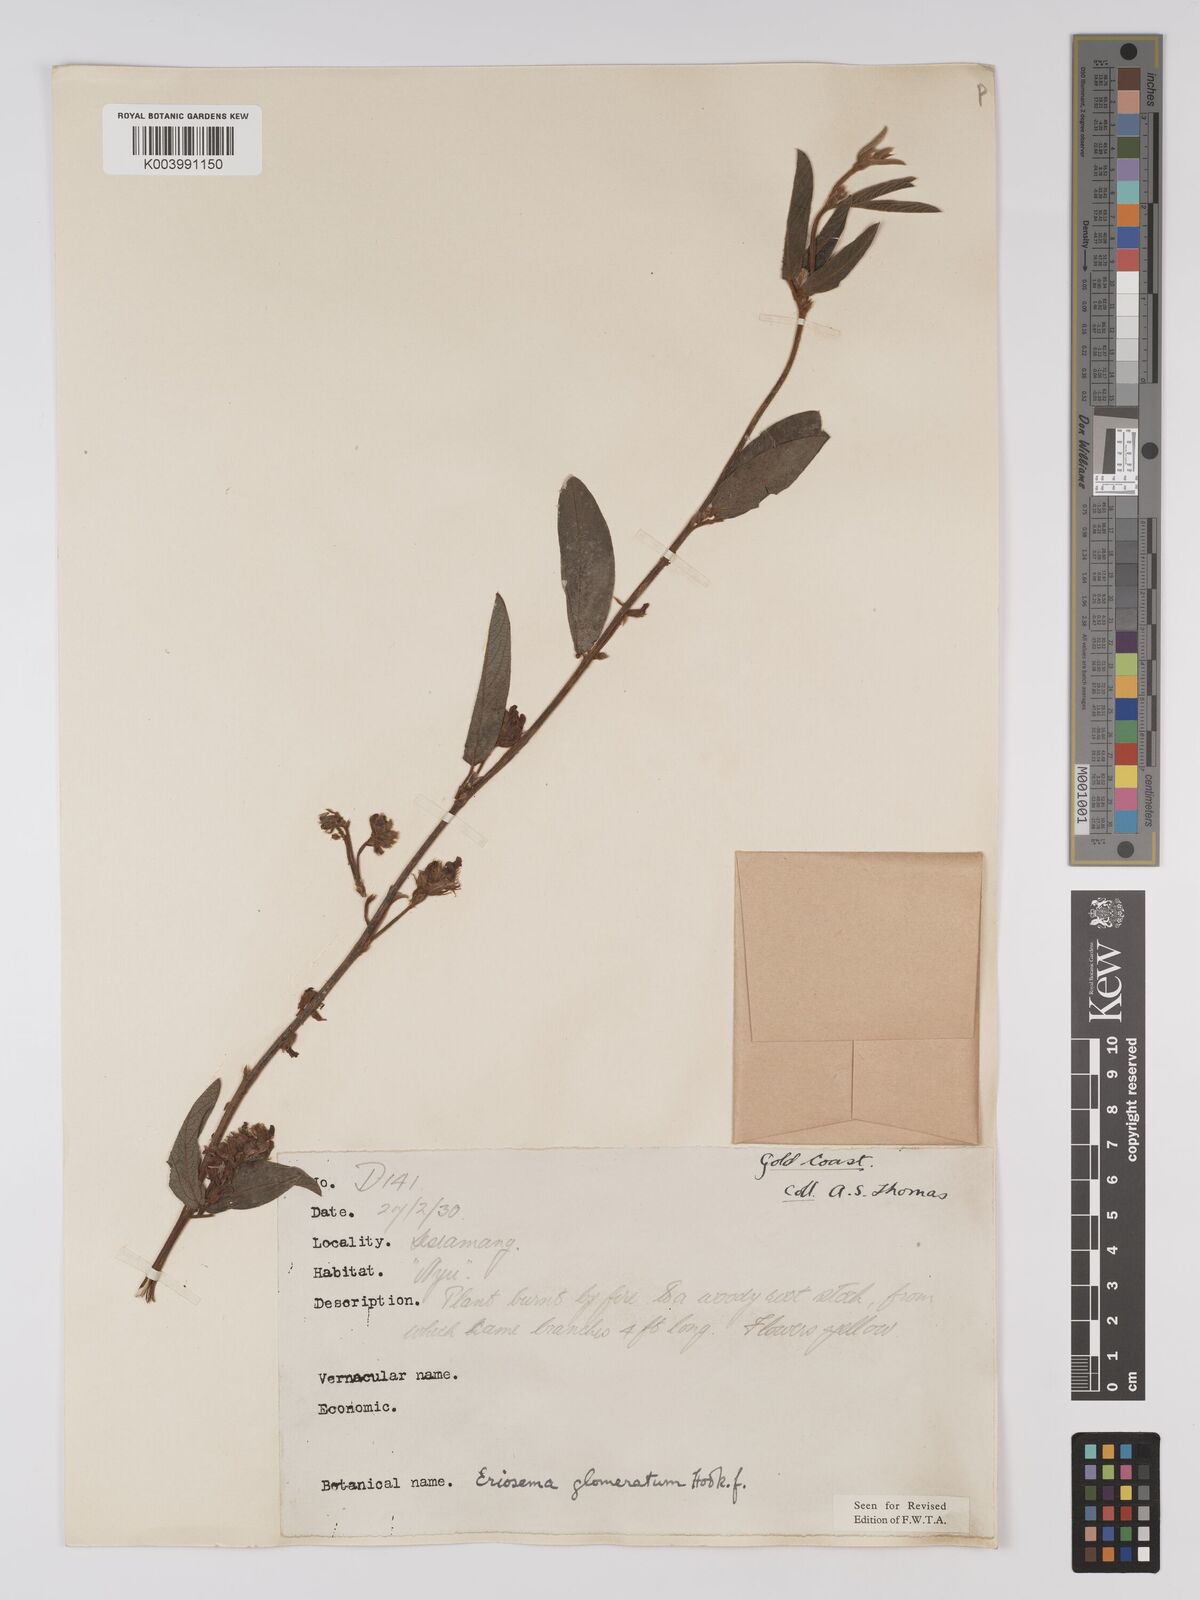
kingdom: Plantae
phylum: Tracheophyta
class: Magnoliopsida
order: Fabales
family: Fabaceae
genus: Eriosema
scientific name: Eriosema glomeratum
